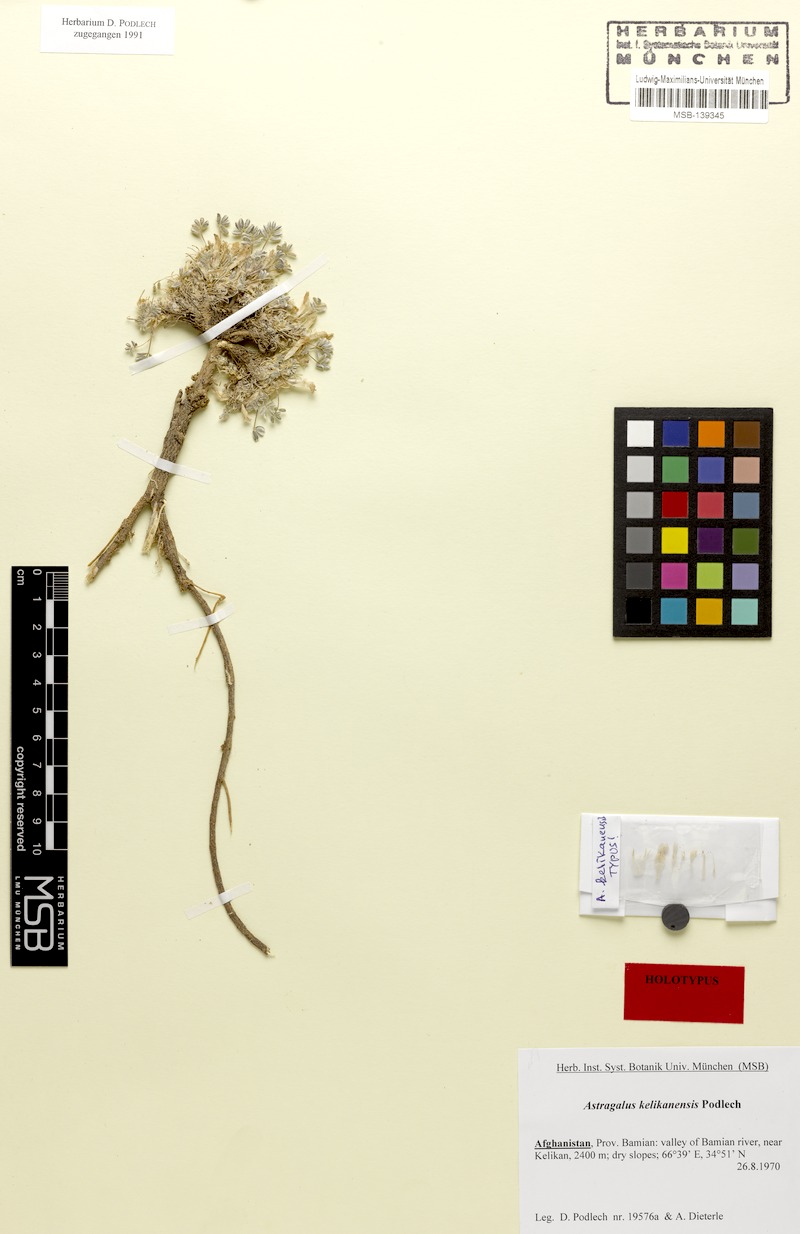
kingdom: Plantae
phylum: Tracheophyta
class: Magnoliopsida
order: Fabales
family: Fabaceae
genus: Astragalus
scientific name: Astragalus kelikanensis
